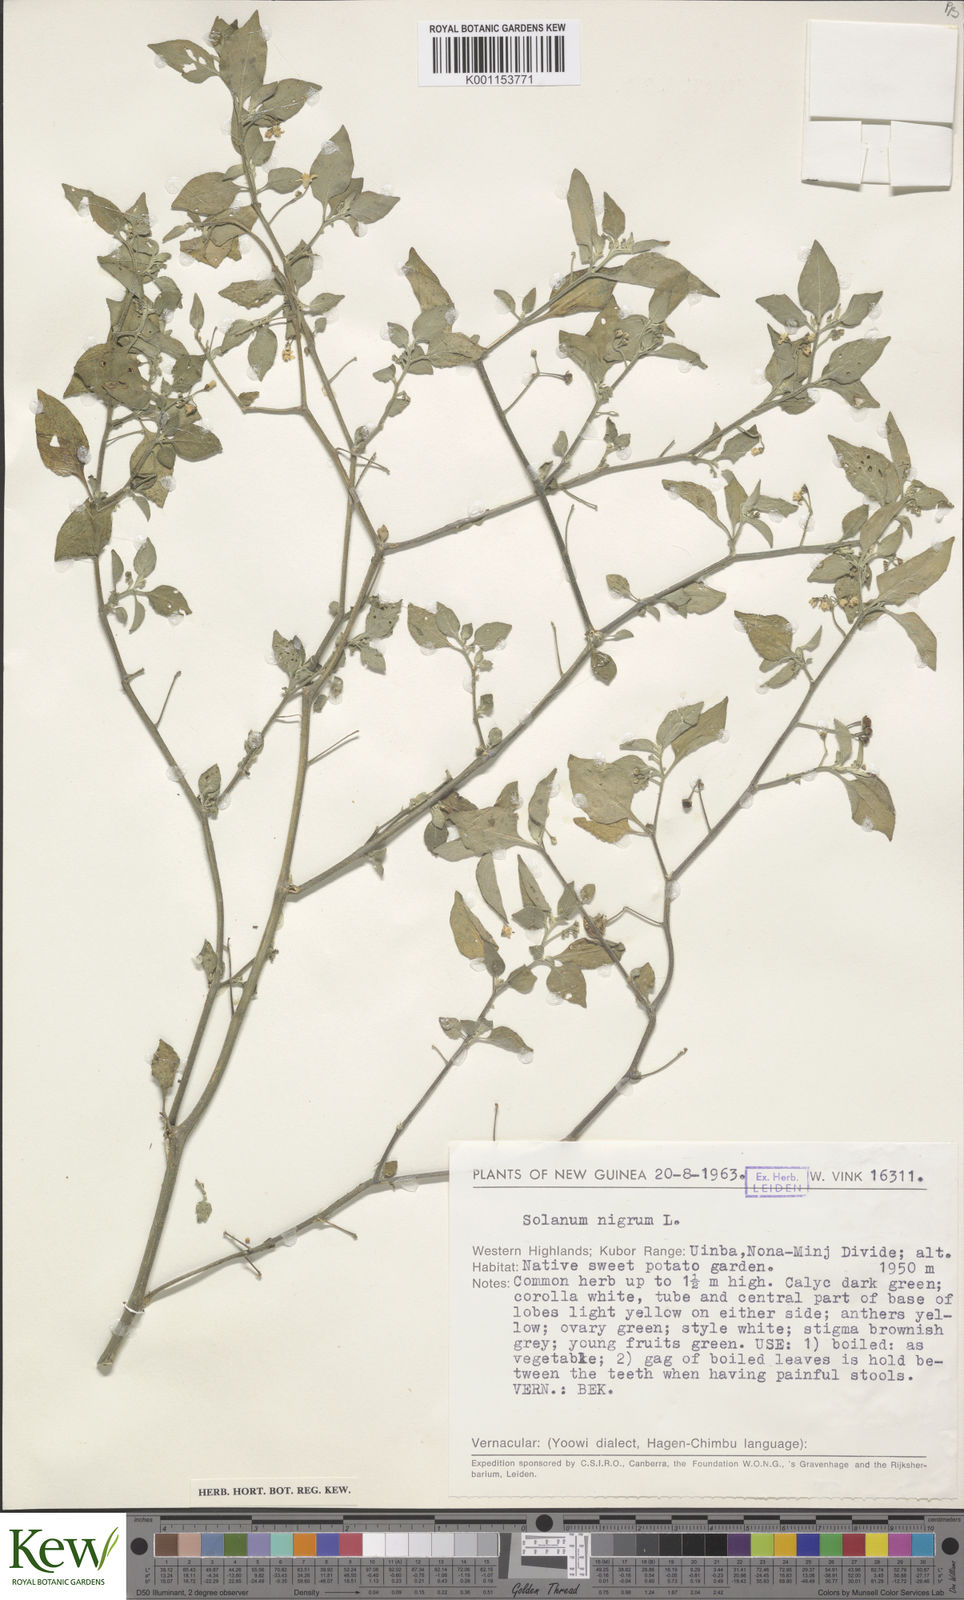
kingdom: Plantae
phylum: Tracheophyta
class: Magnoliopsida
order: Solanales
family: Solanaceae
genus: Solanum
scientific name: Solanum nigrum
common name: Black nightshade
